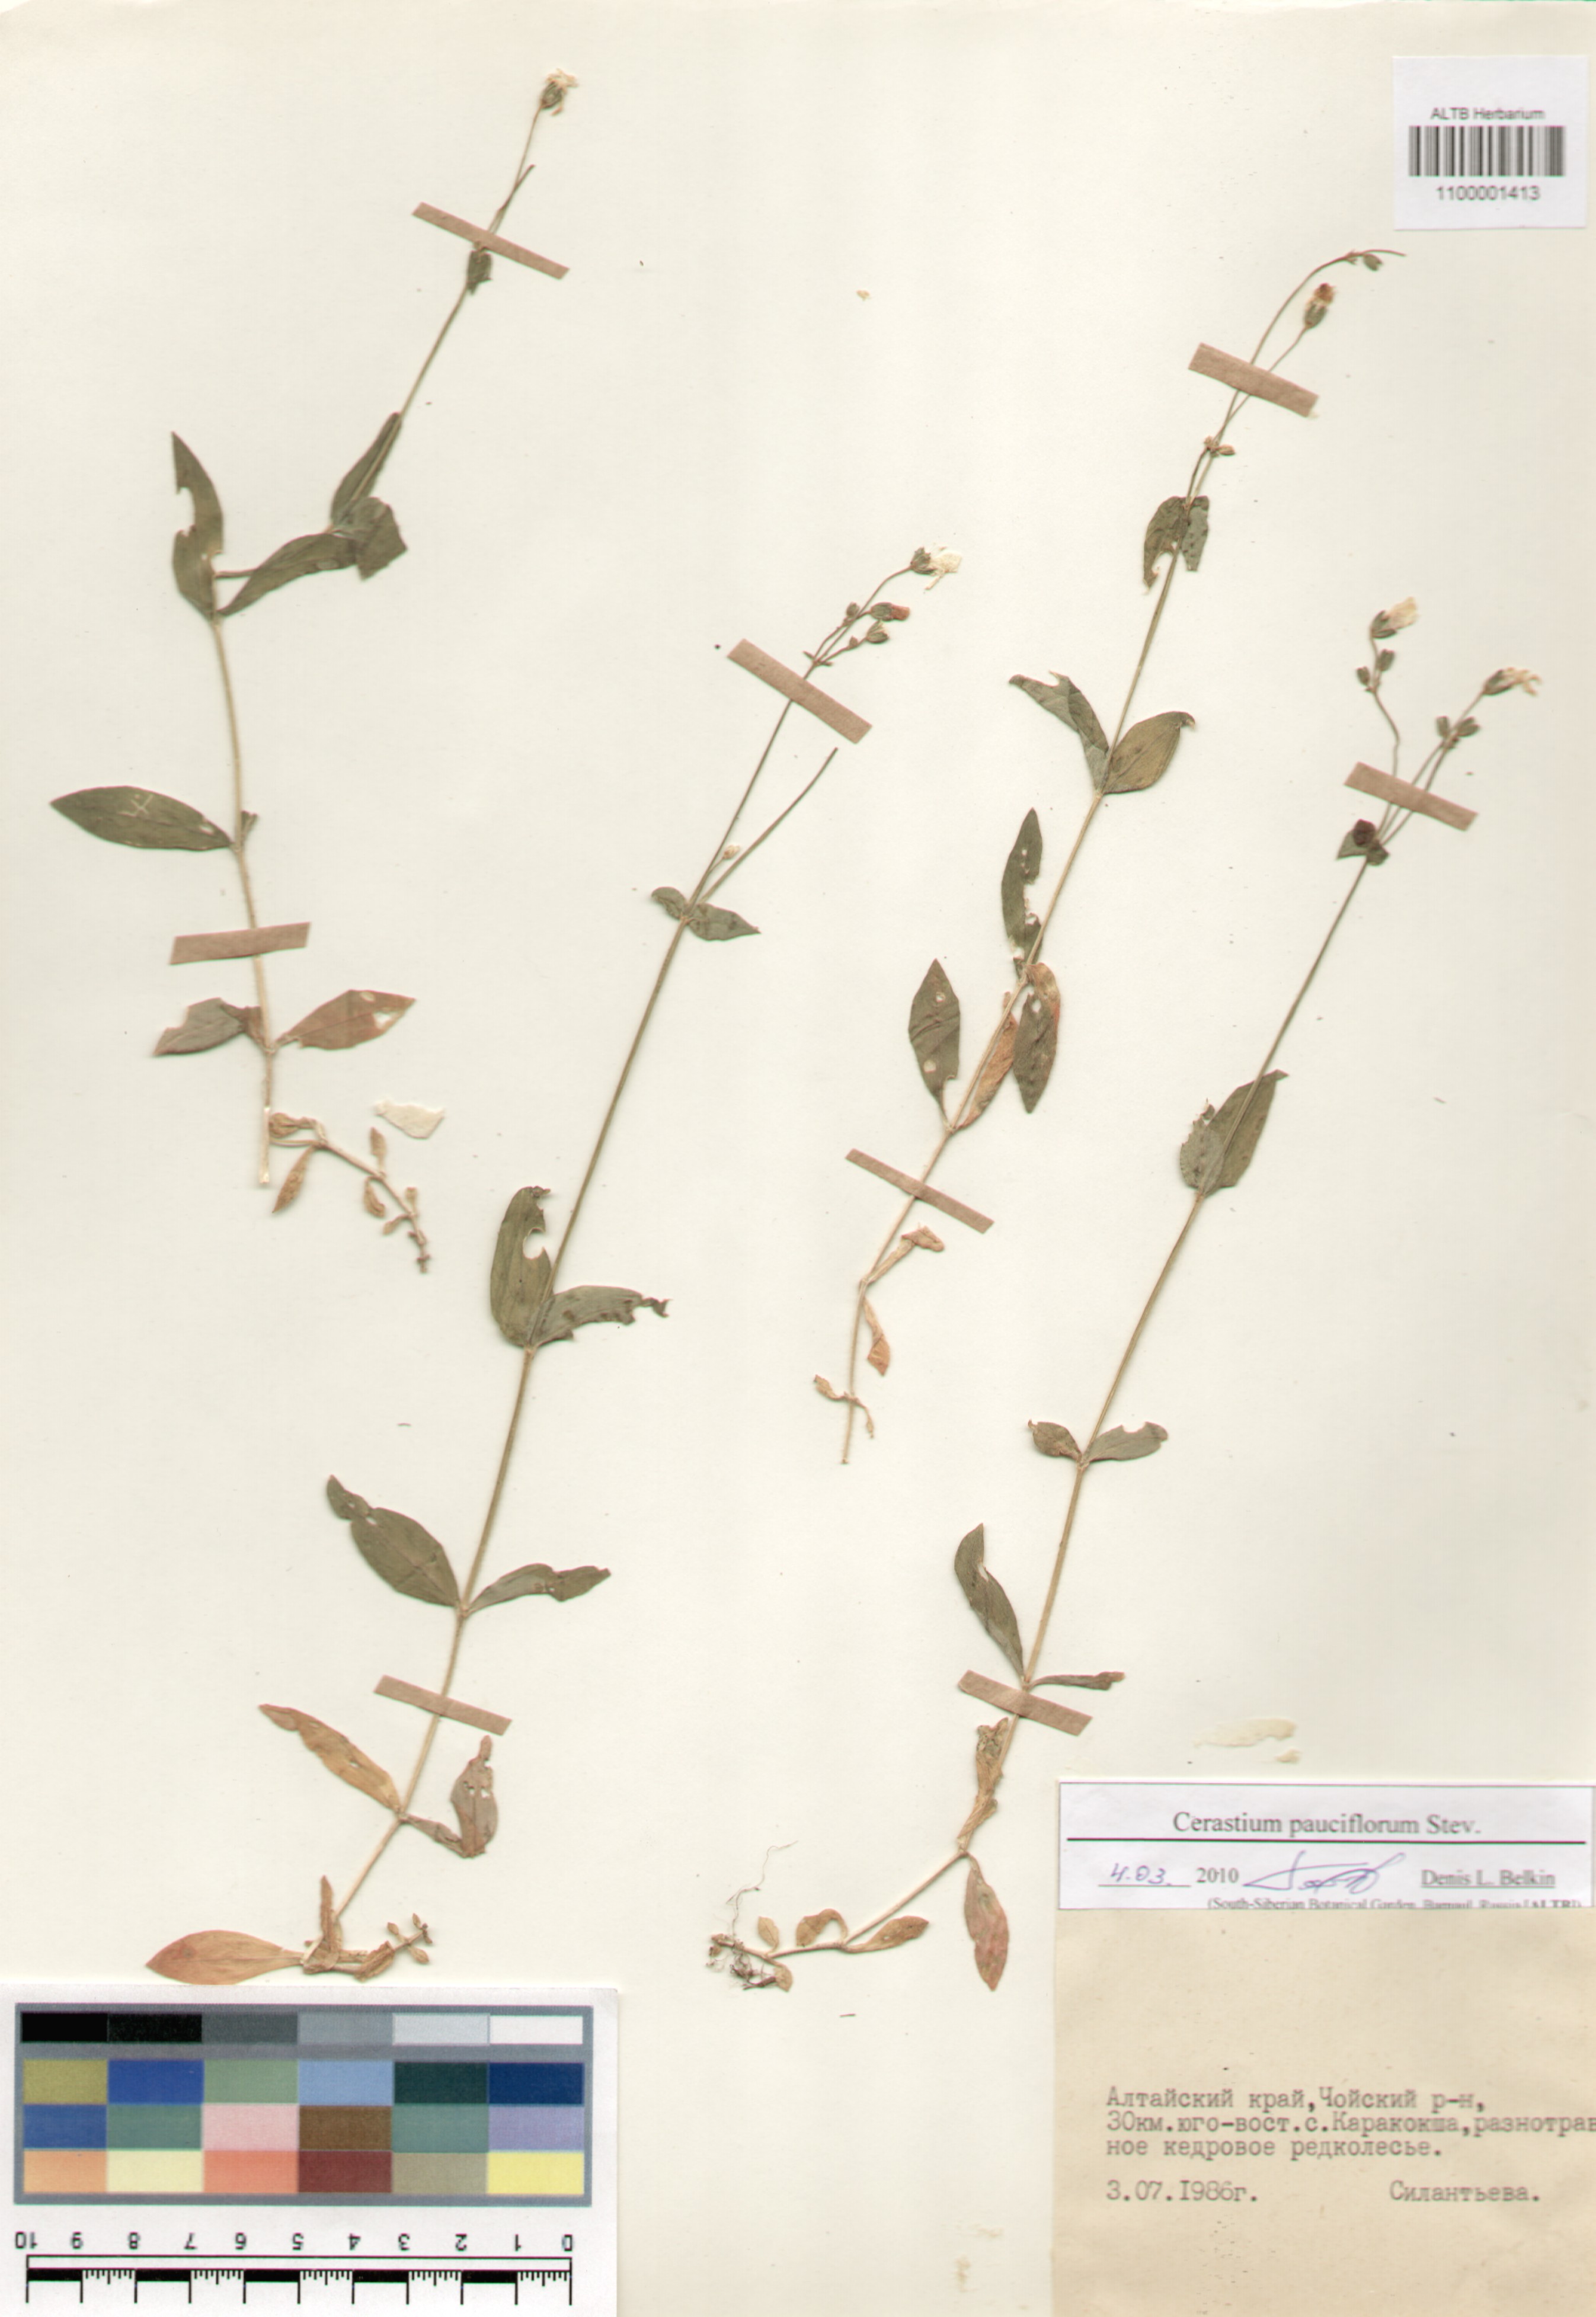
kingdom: Plantae
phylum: Tracheophyta
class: Magnoliopsida
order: Caryophyllales
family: Caryophyllaceae
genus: Cerastium
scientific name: Cerastium pauciflorum
